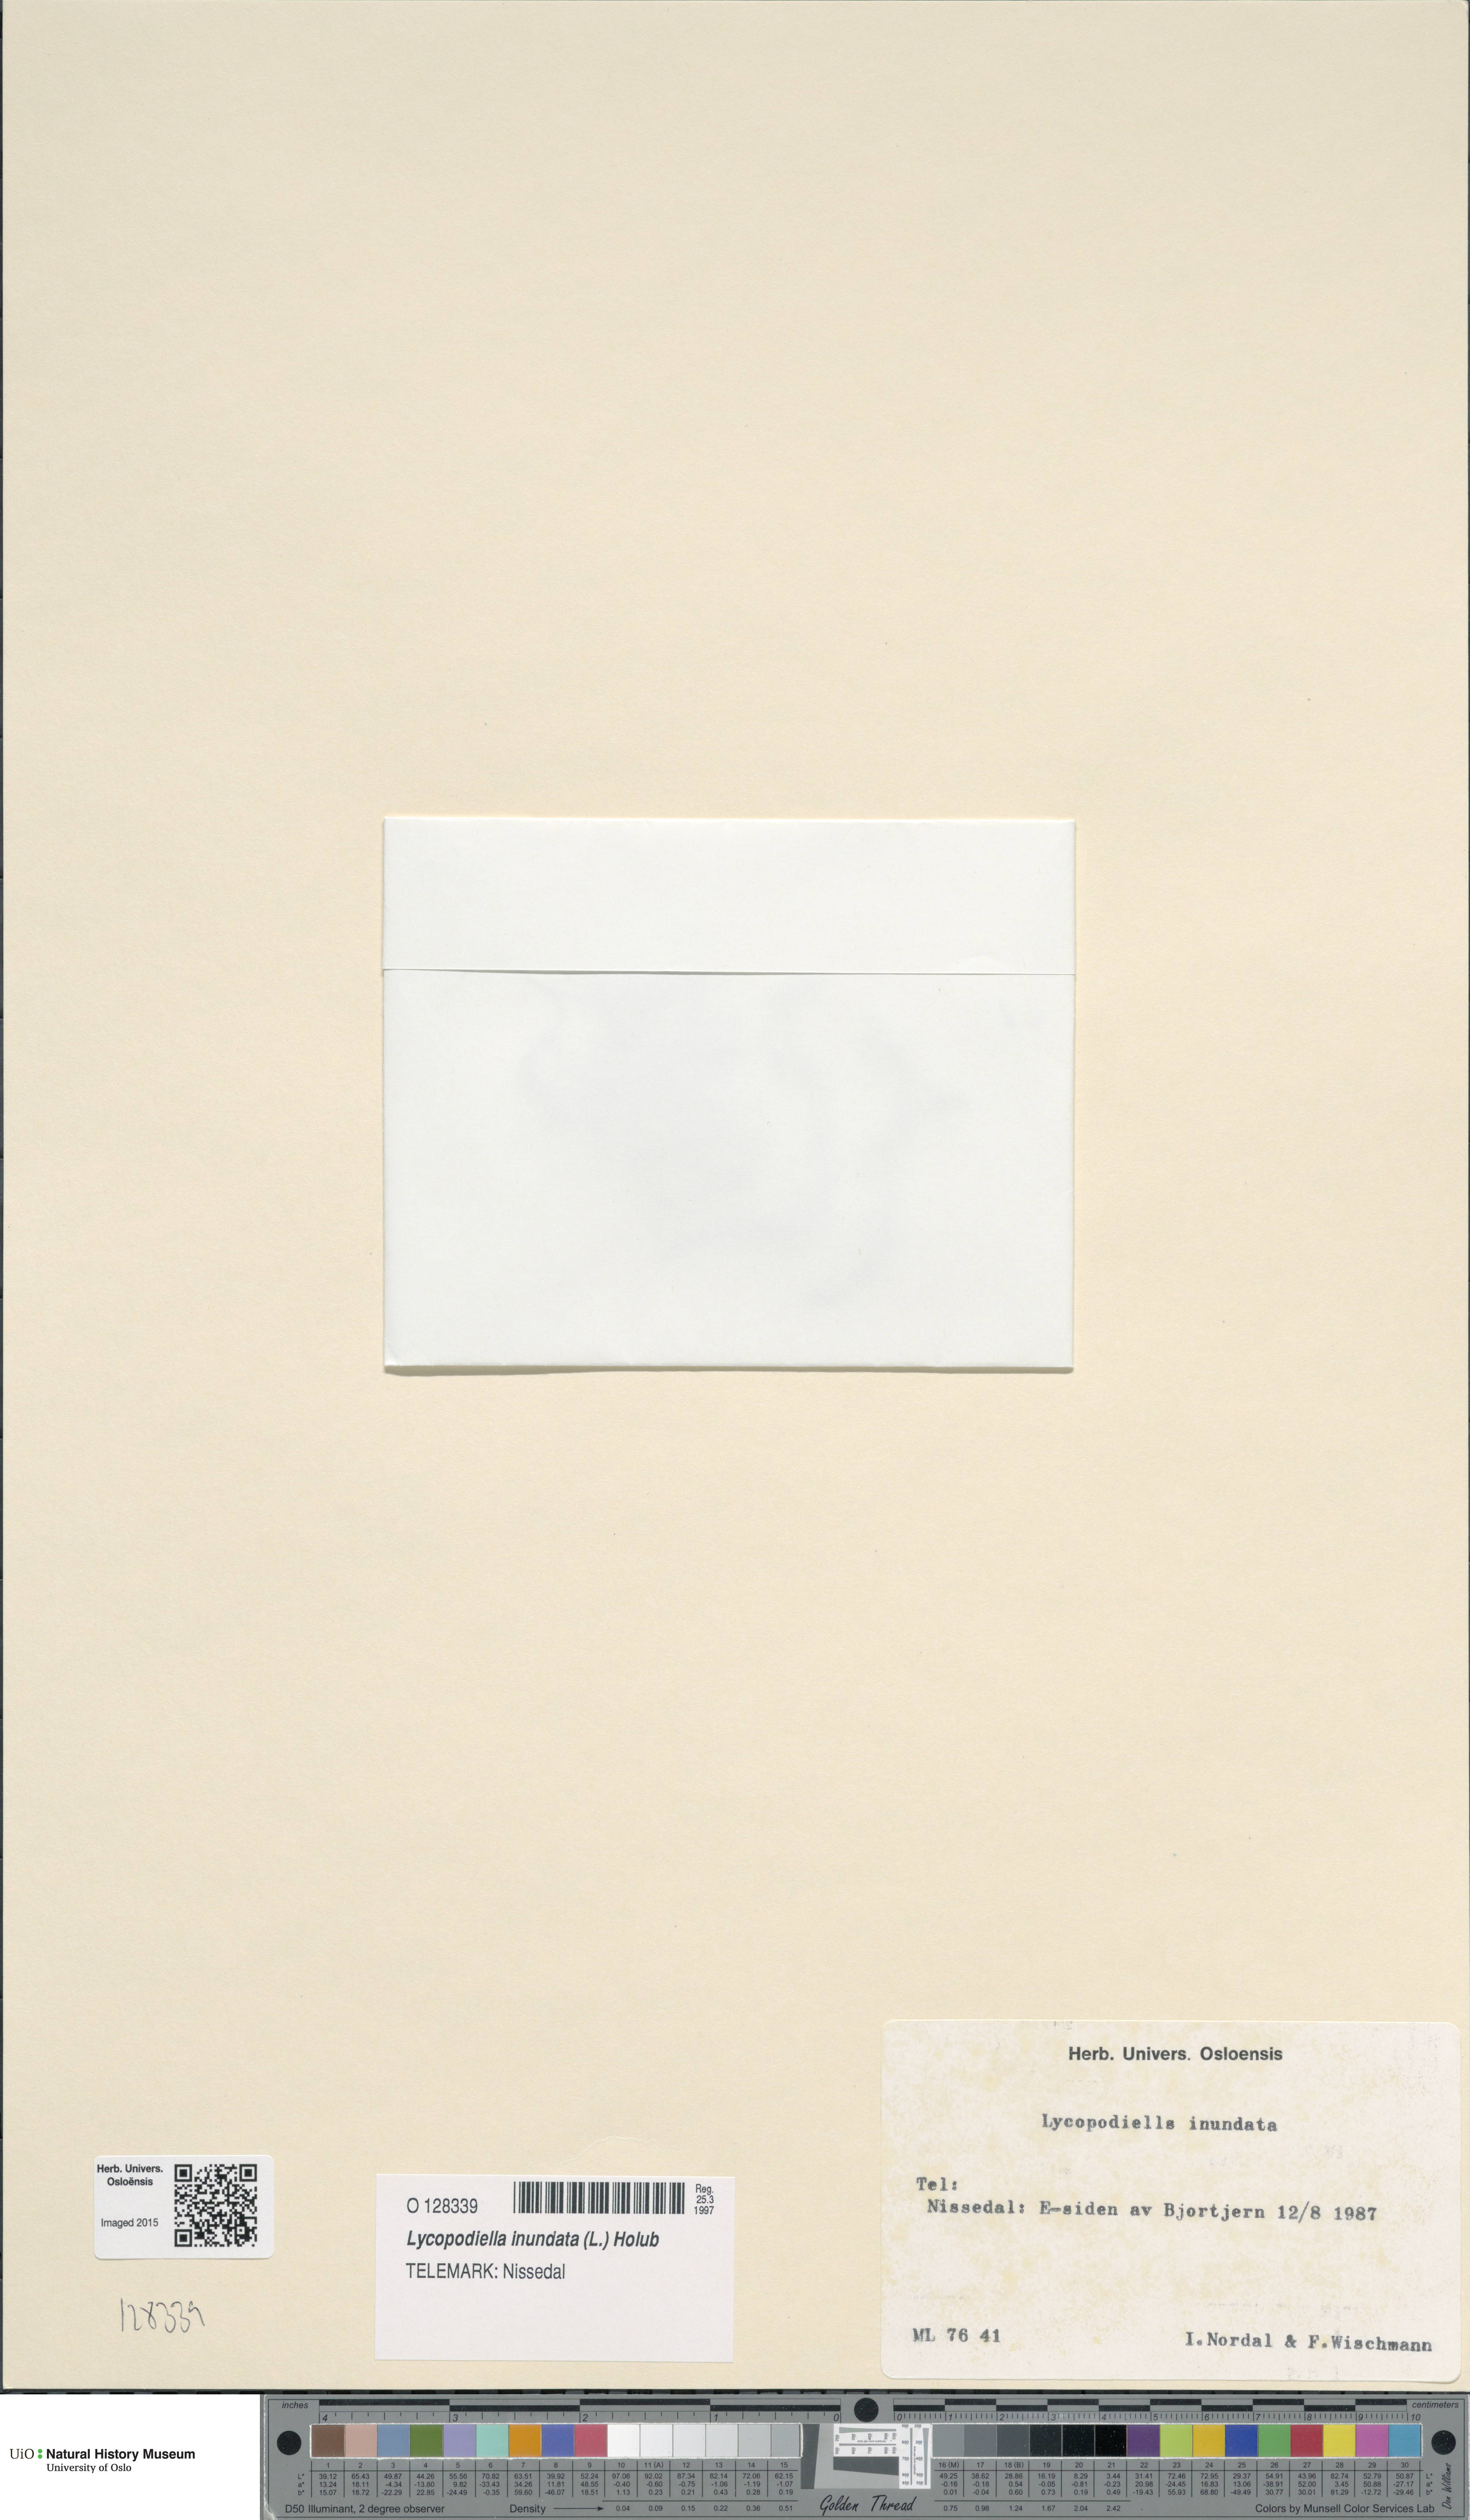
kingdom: Plantae
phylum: Tracheophyta
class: Lycopodiopsida
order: Lycopodiales
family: Lycopodiaceae
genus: Lycopodiella
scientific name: Lycopodiella inundata
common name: Marsh clubmoss
